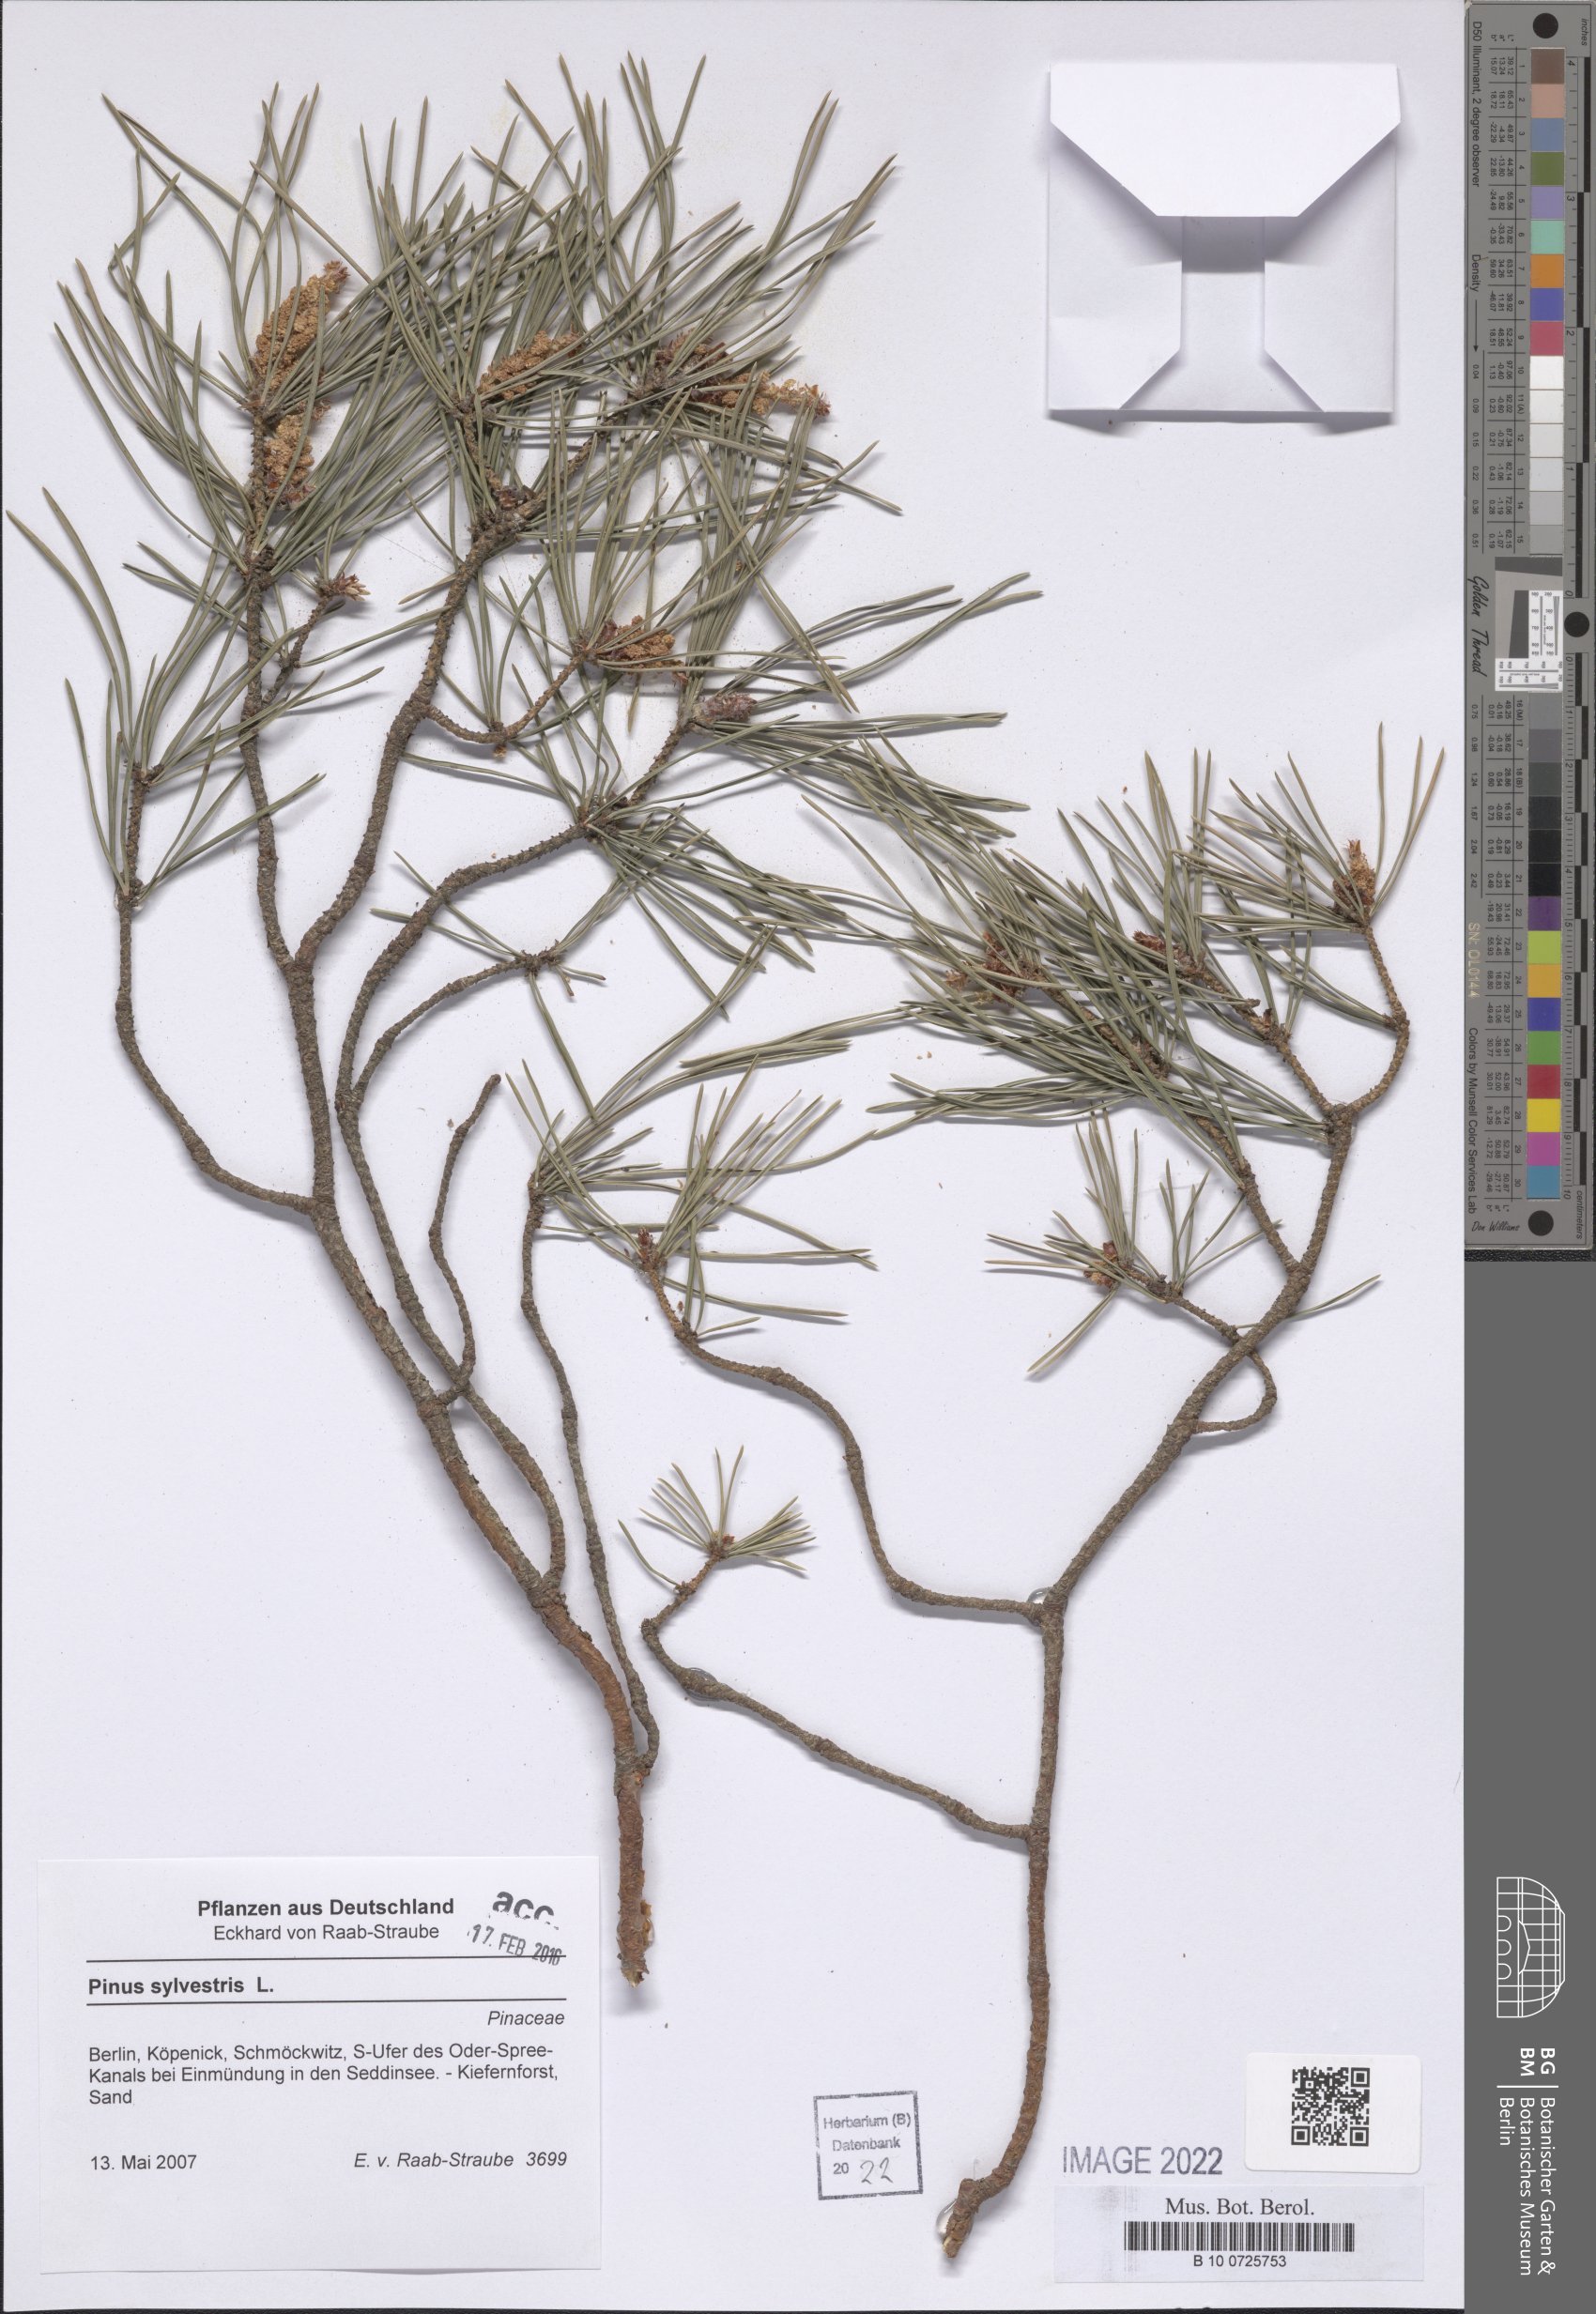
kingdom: Plantae
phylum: Tracheophyta
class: Pinopsida
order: Pinales
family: Pinaceae
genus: Pinus
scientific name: Pinus sylvestris
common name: Scots pine
